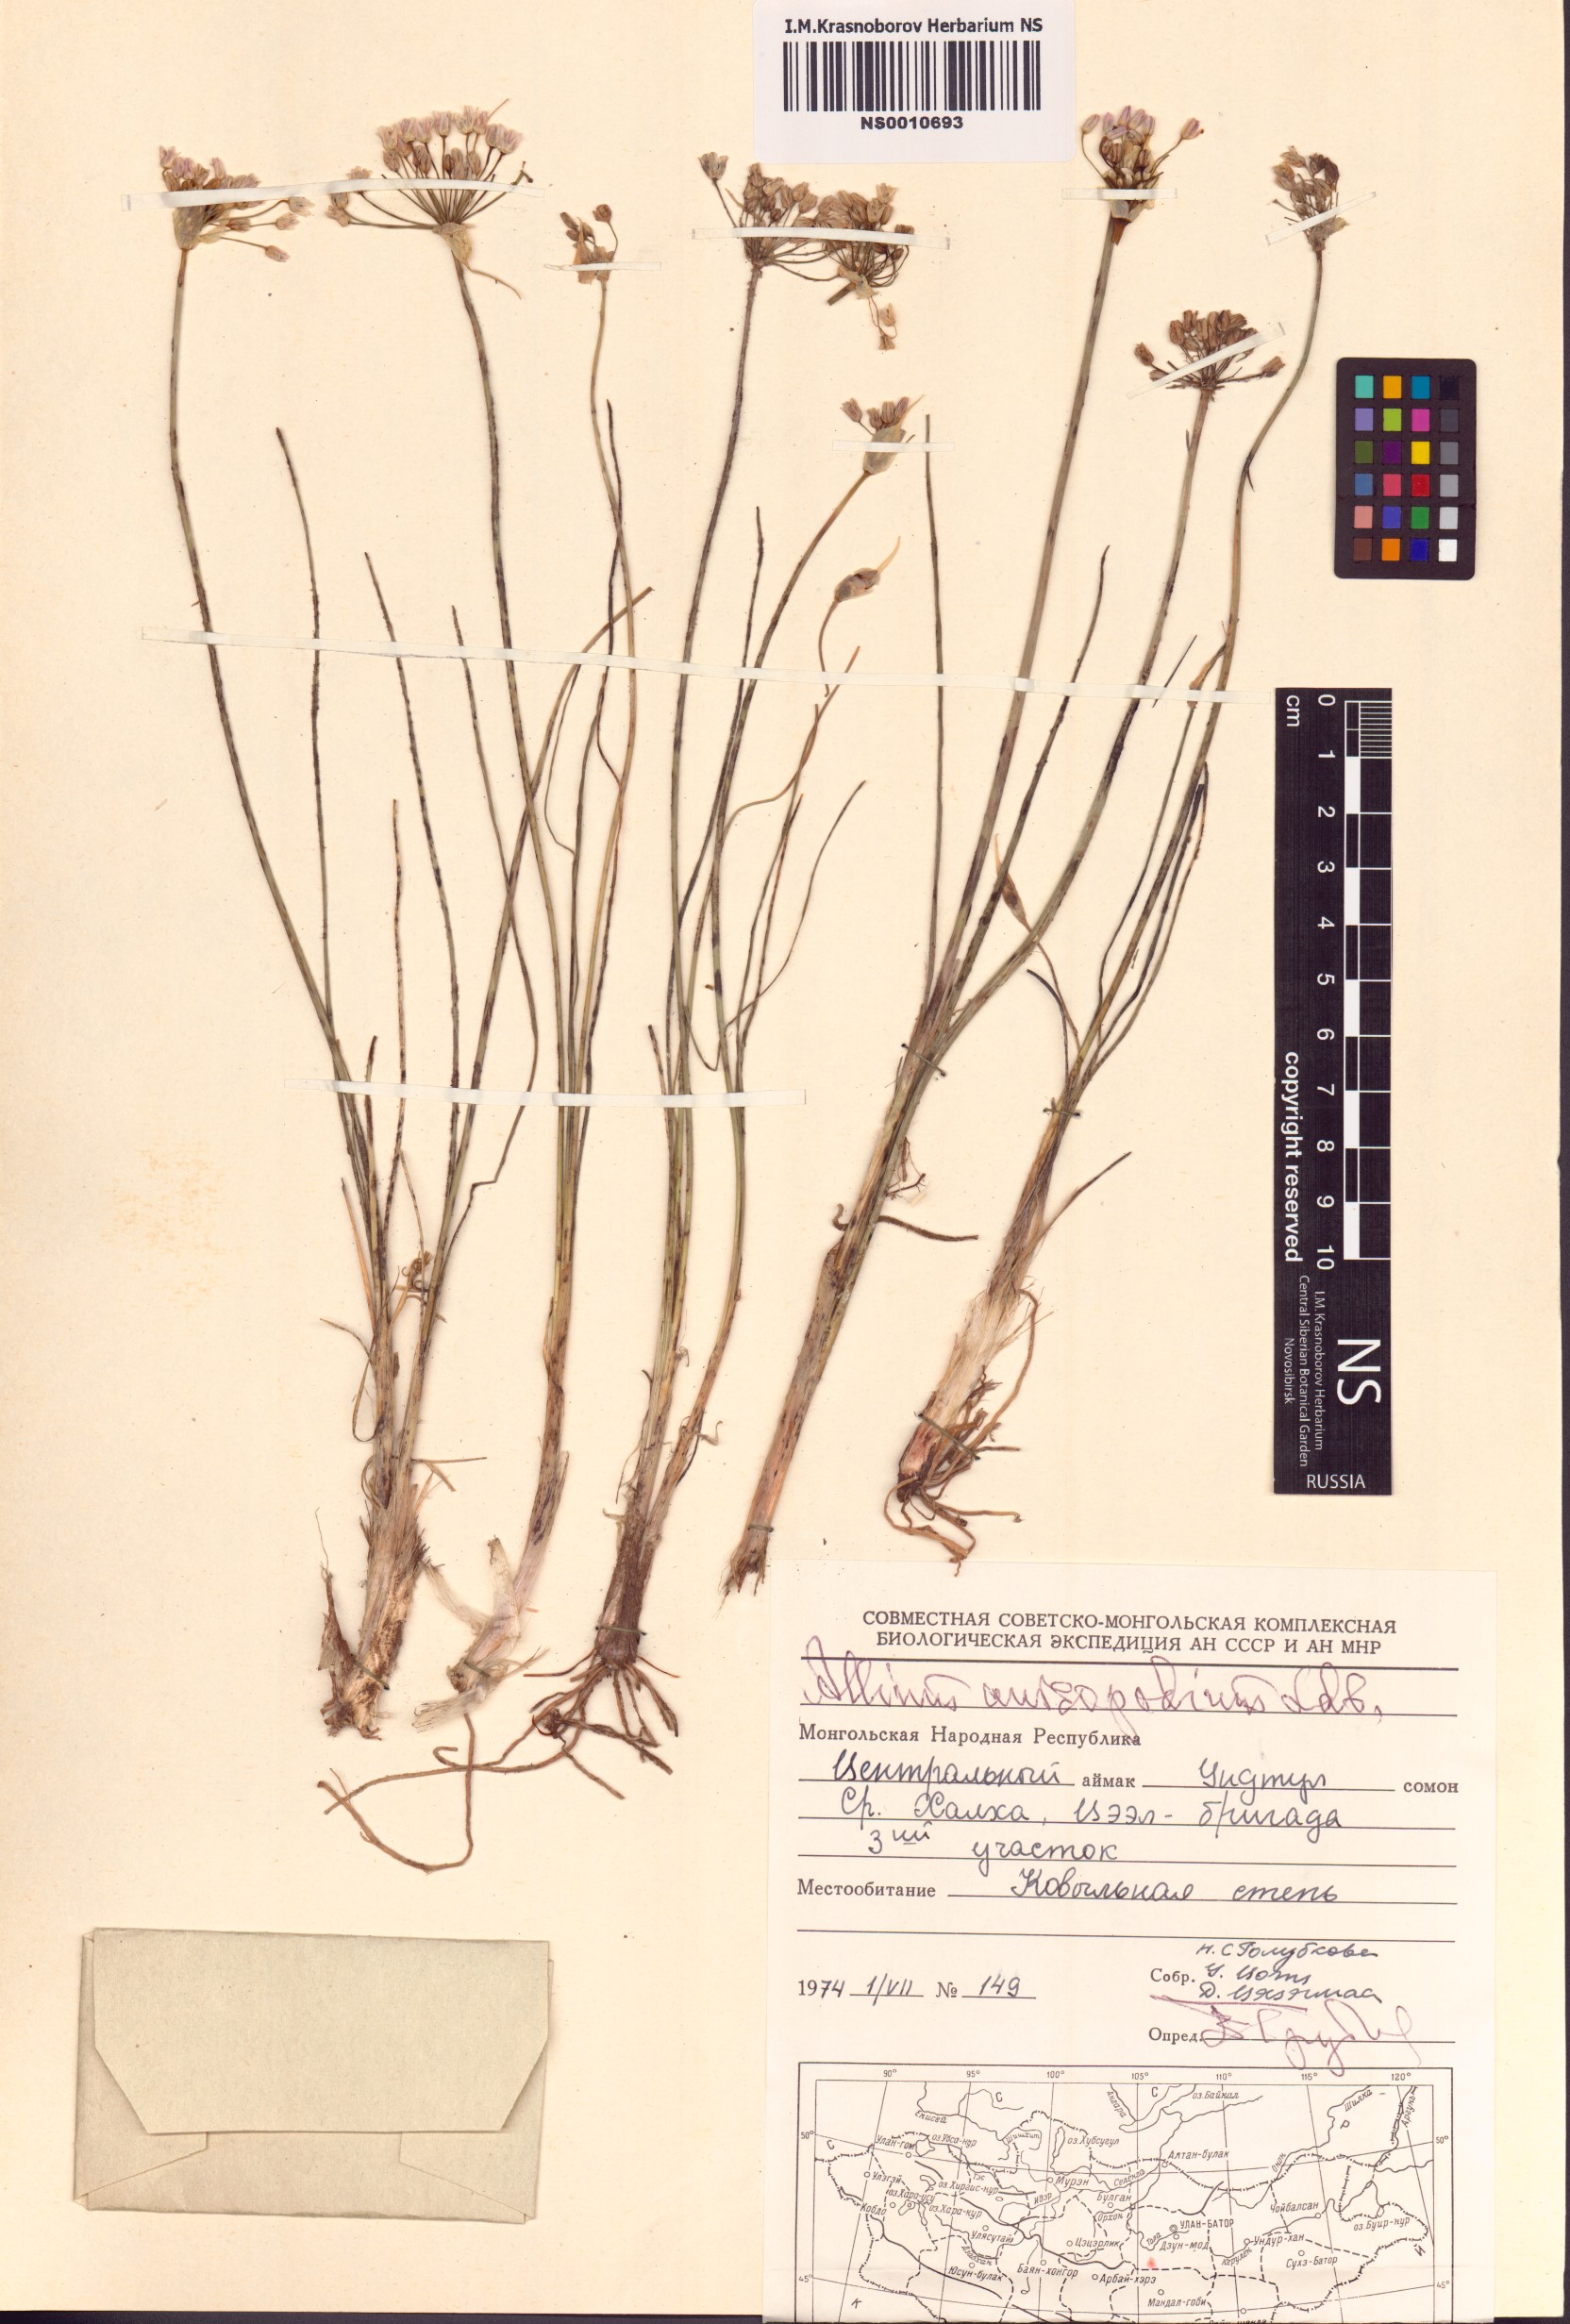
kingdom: Plantae
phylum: Tracheophyta
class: Liliopsida
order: Asparagales
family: Amaryllidaceae
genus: Allium
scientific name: Allium anisopodium
